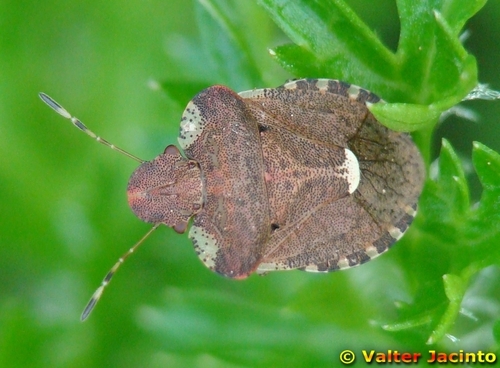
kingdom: Animalia
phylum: Arthropoda
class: Insecta
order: Hemiptera
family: Pentatomidae
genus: Dyroderes
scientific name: Dyroderes umbraculatus
